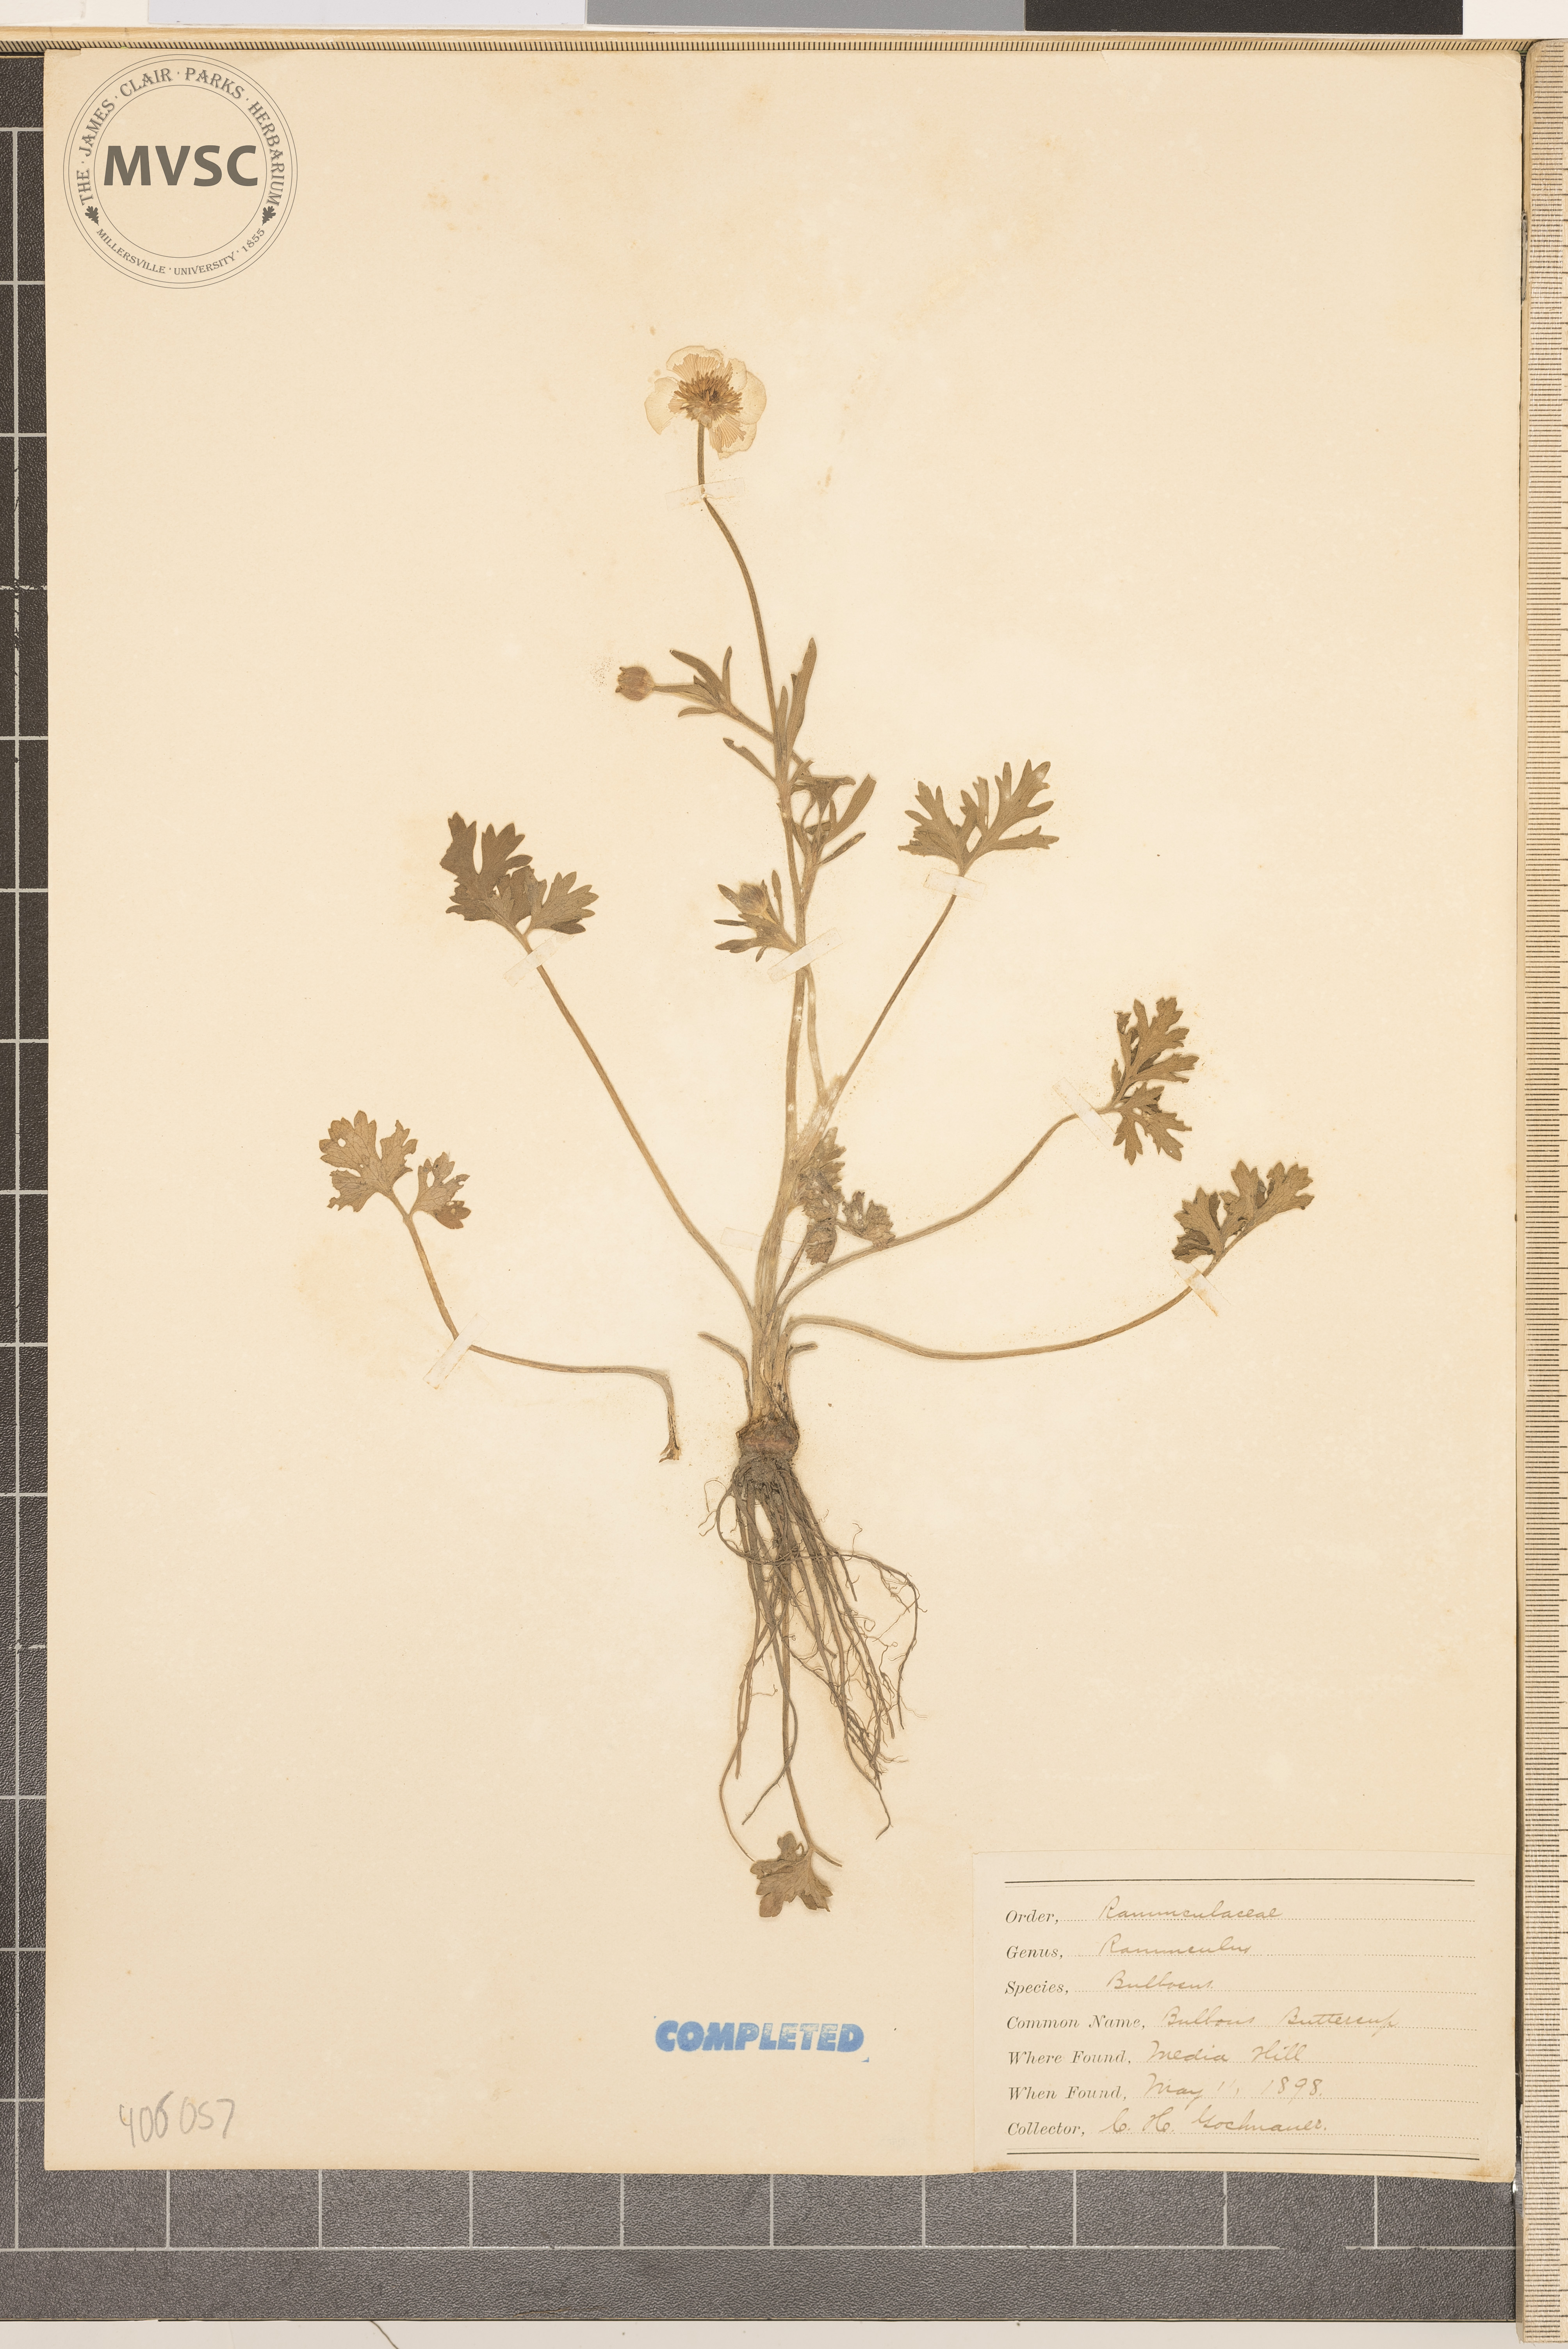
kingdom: Plantae
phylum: Tracheophyta
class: Magnoliopsida
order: Ranunculales
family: Ranunculaceae
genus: Ranunculus
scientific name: Ranunculus bulbosus
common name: Bulbous buttercup
